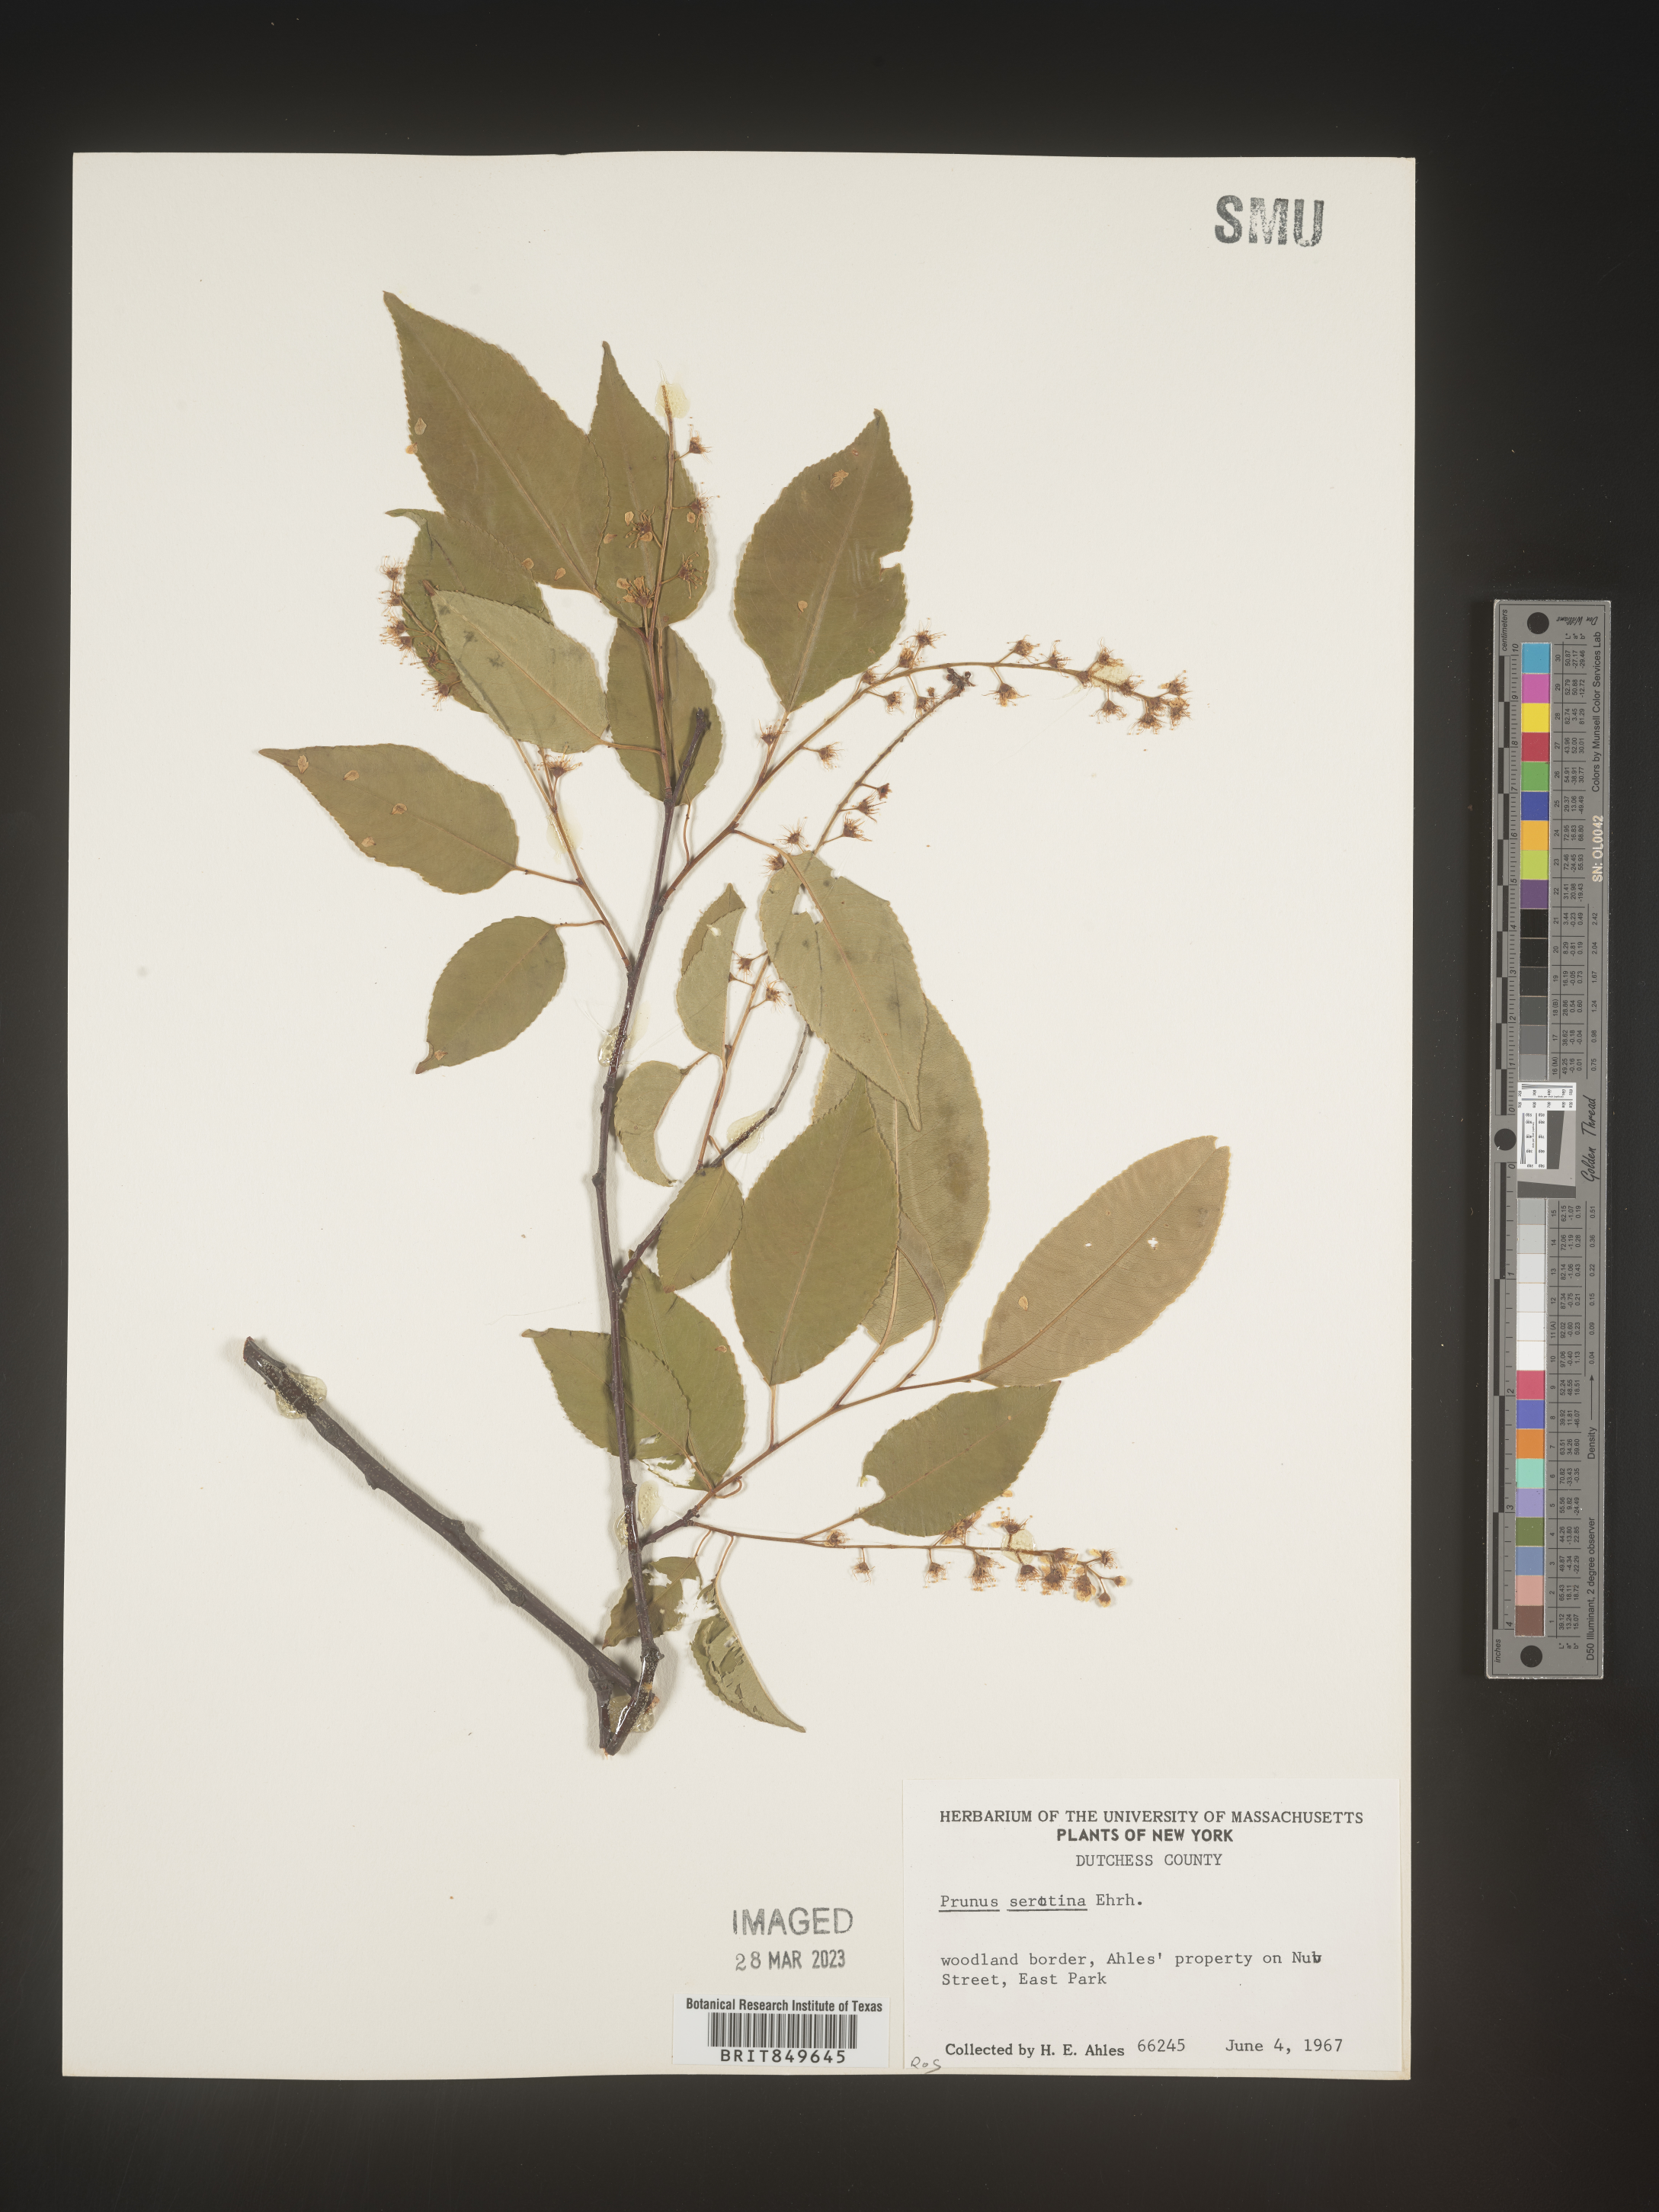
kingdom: Plantae
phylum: Tracheophyta
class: Magnoliopsida
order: Rosales
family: Rosaceae
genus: Prunus
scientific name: Prunus serotina
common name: Black cherry
